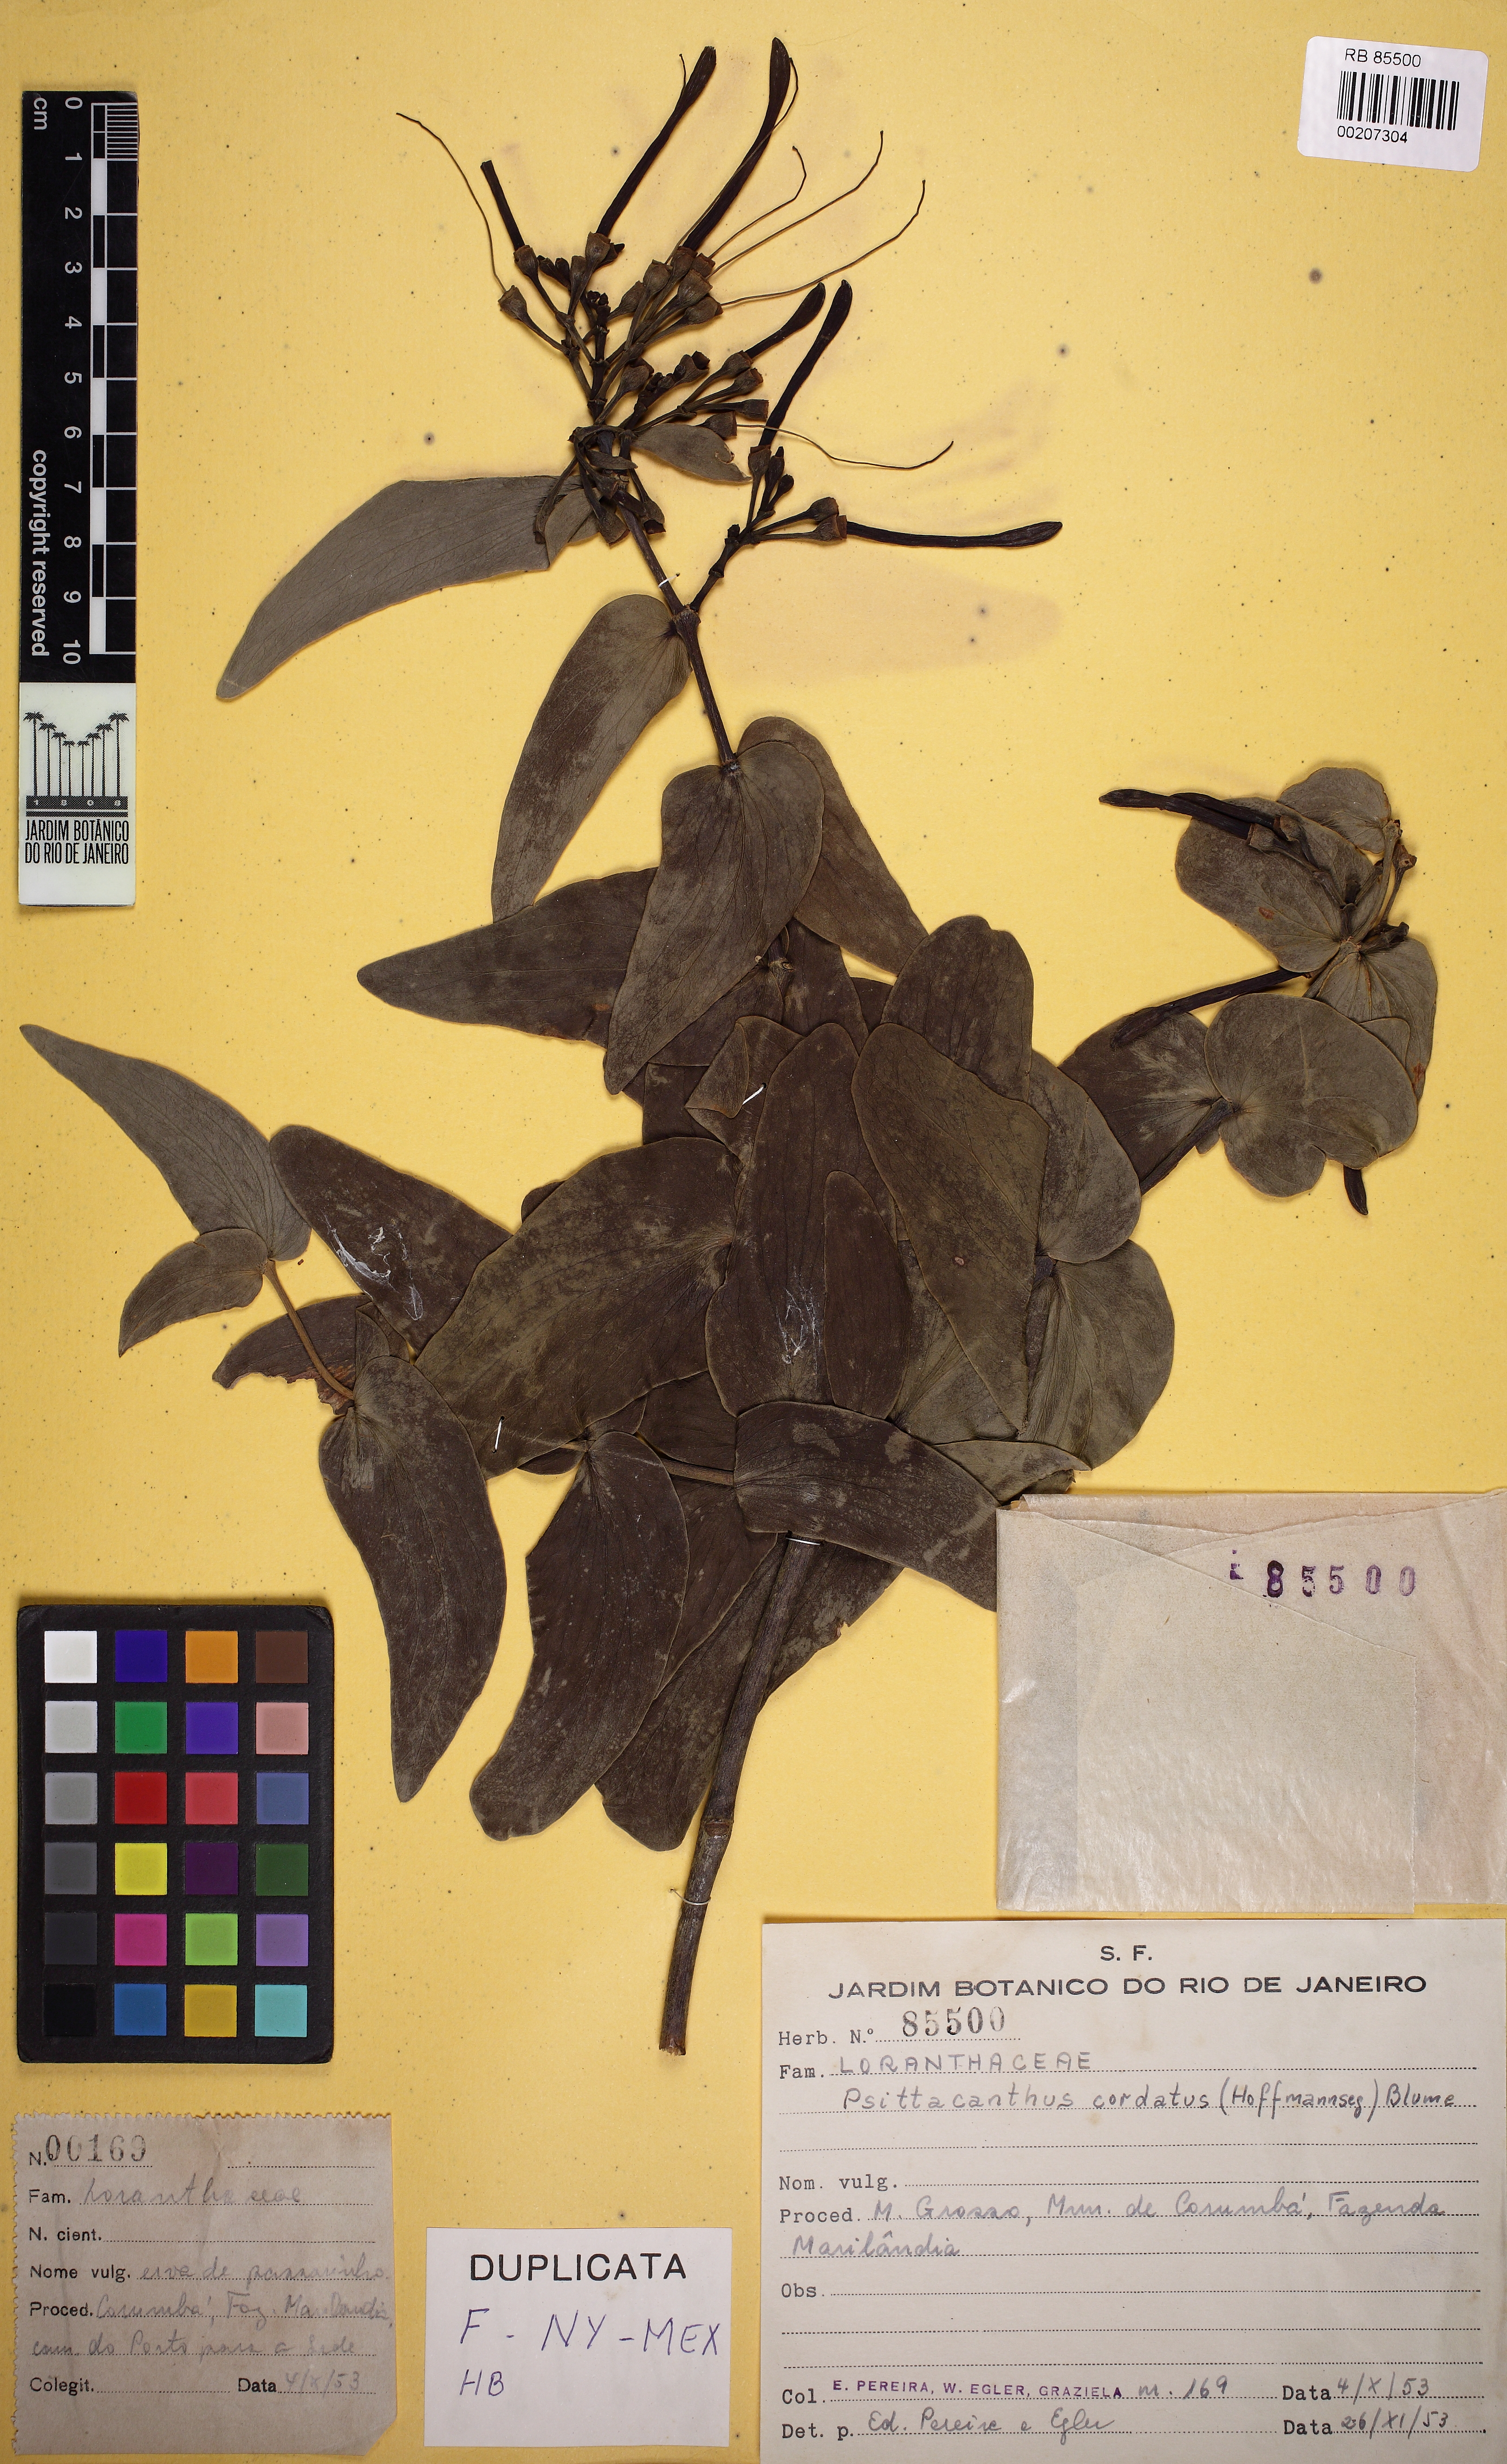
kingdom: Plantae
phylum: Tracheophyta
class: Magnoliopsida
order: Santalales
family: Loranthaceae
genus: Psittacanthus
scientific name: Psittacanthus cordatus
